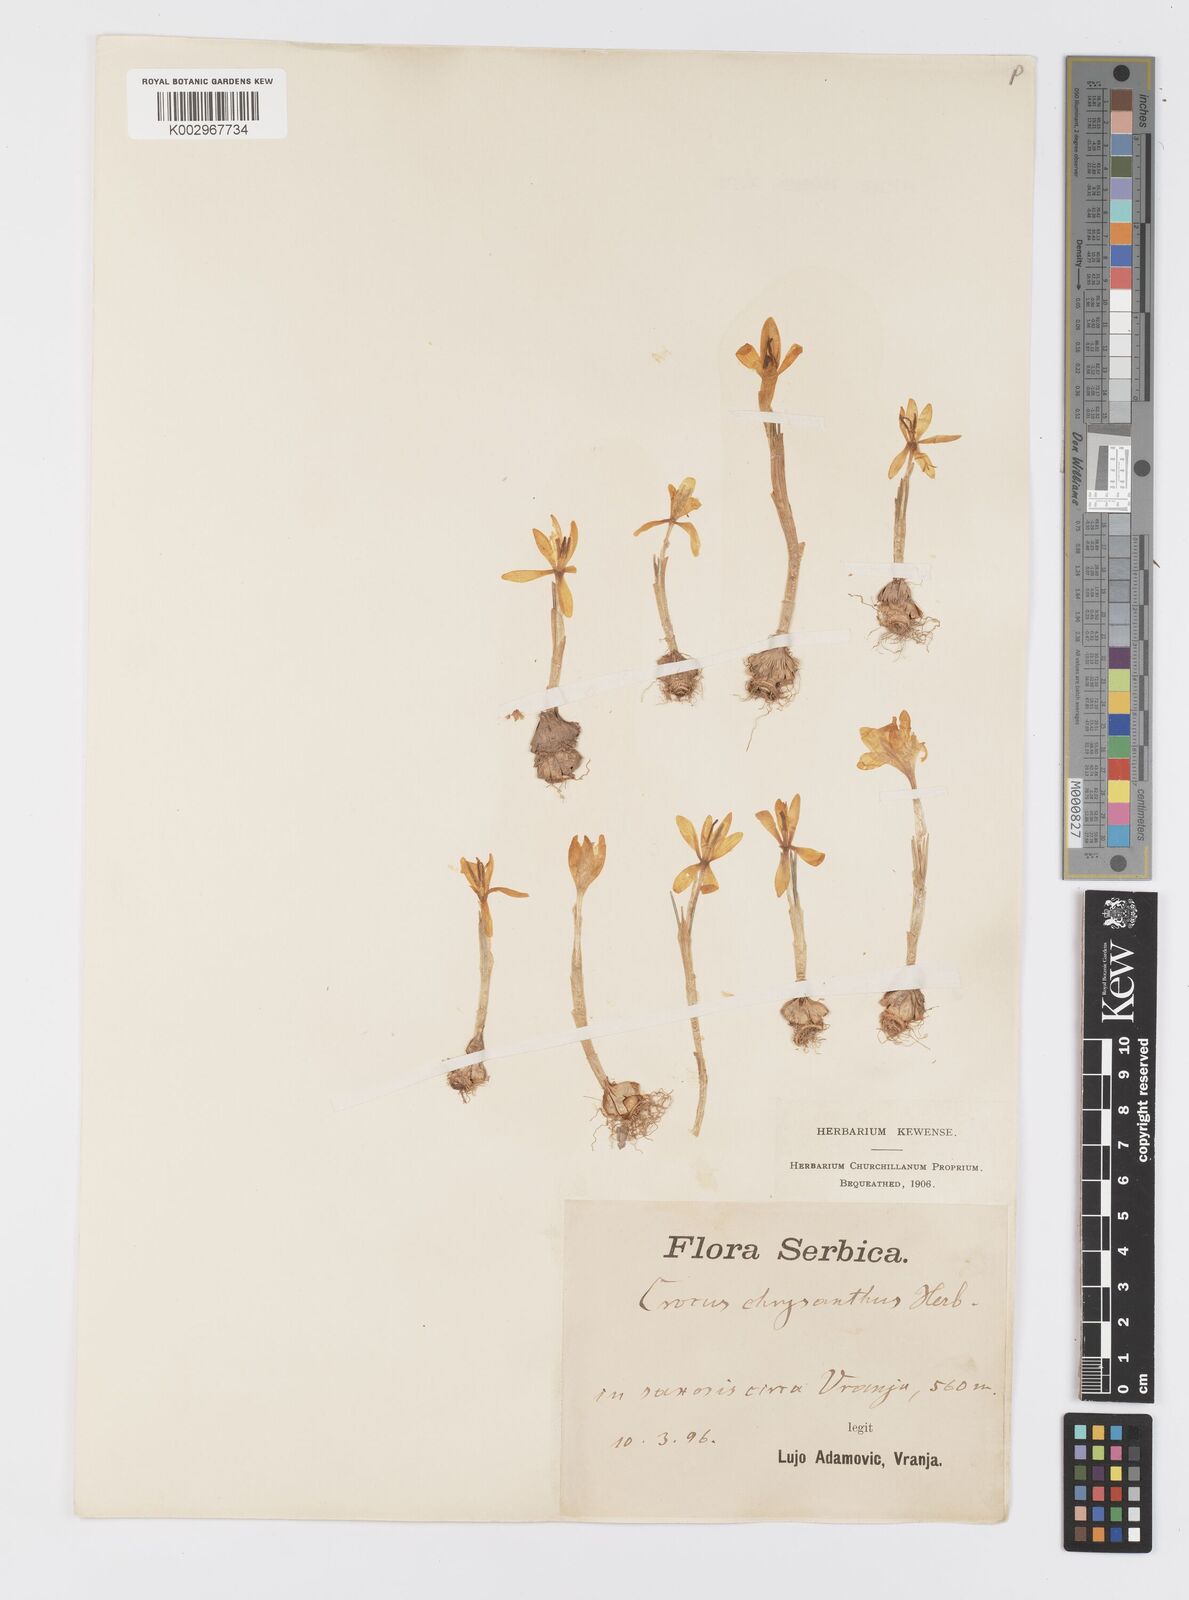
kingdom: Plantae
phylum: Tracheophyta
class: Liliopsida
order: Asparagales
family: Iridaceae
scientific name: Iridaceae
